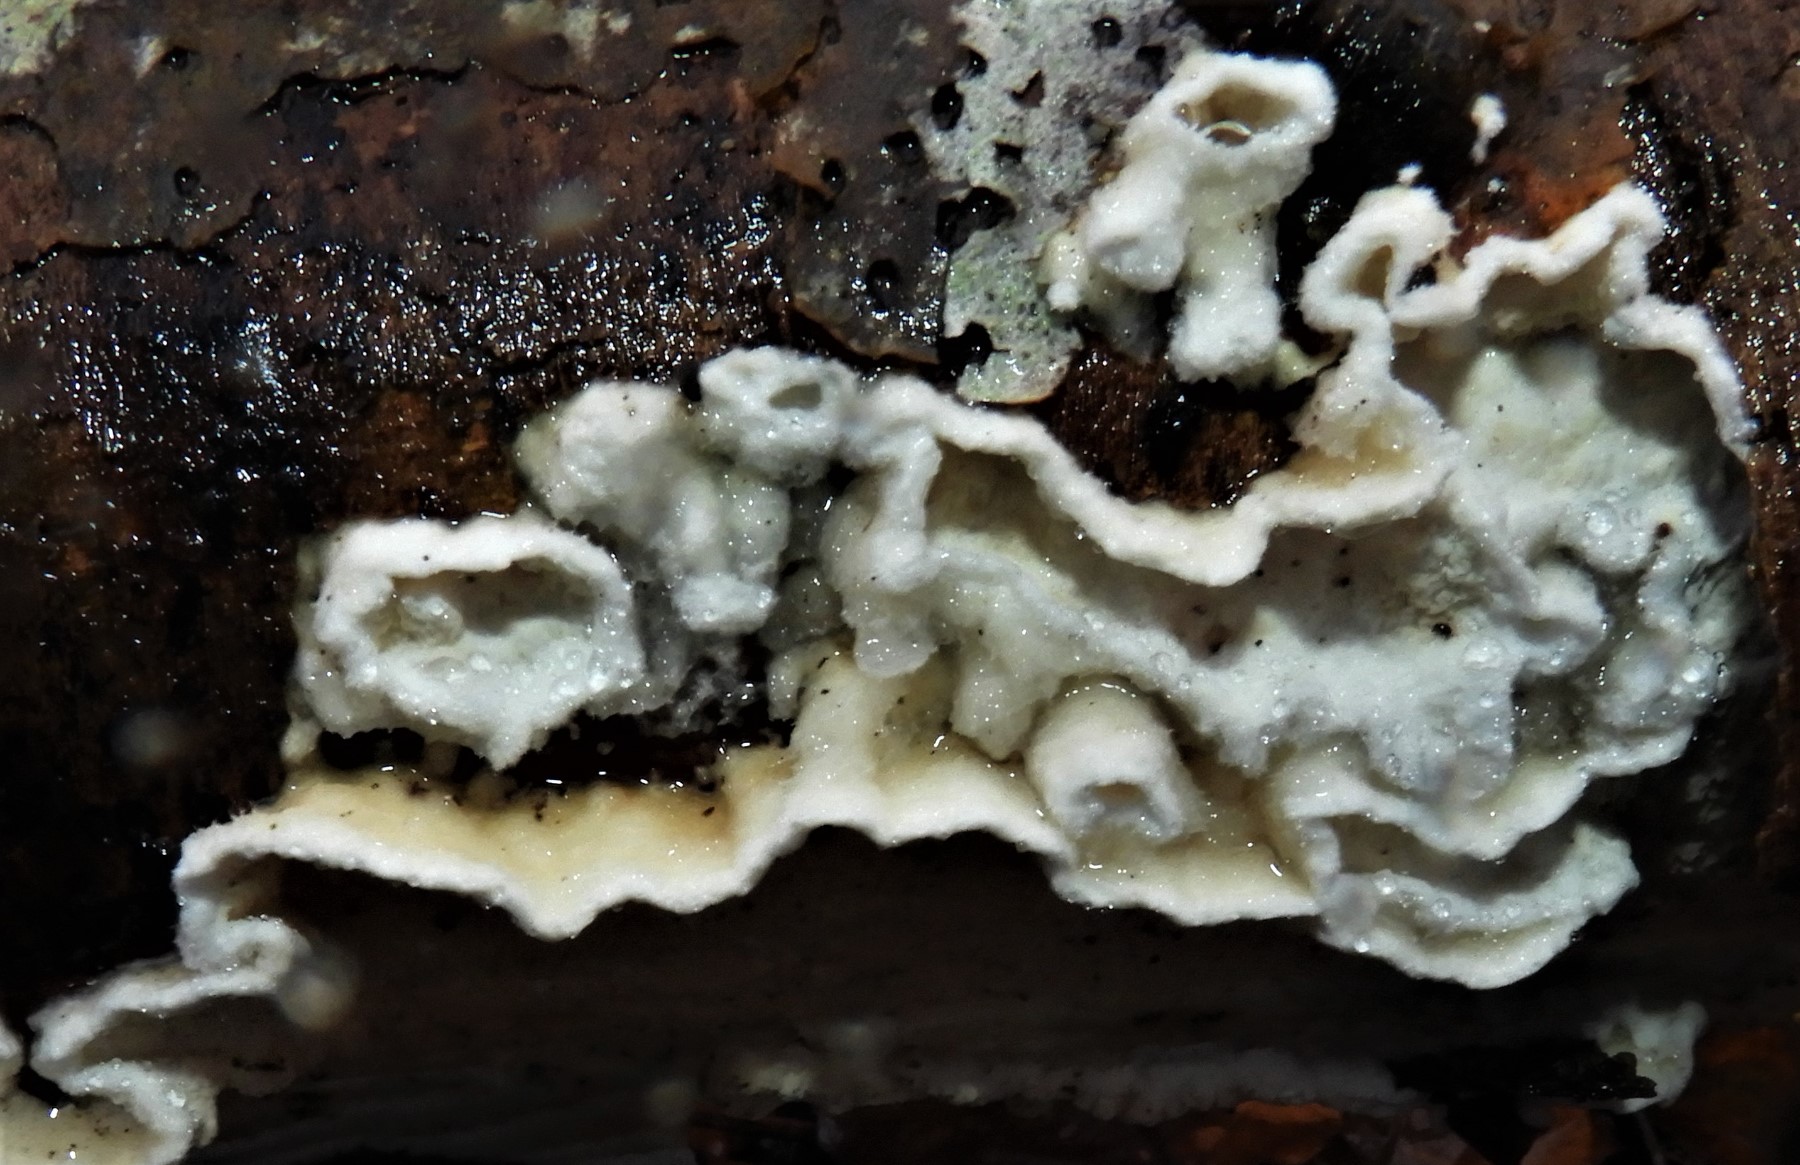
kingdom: Fungi
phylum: Basidiomycota
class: Agaricomycetes
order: Polyporales
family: Irpicaceae
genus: Byssomerulius
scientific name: Byssomerulius corium
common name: læder-åresvamp
